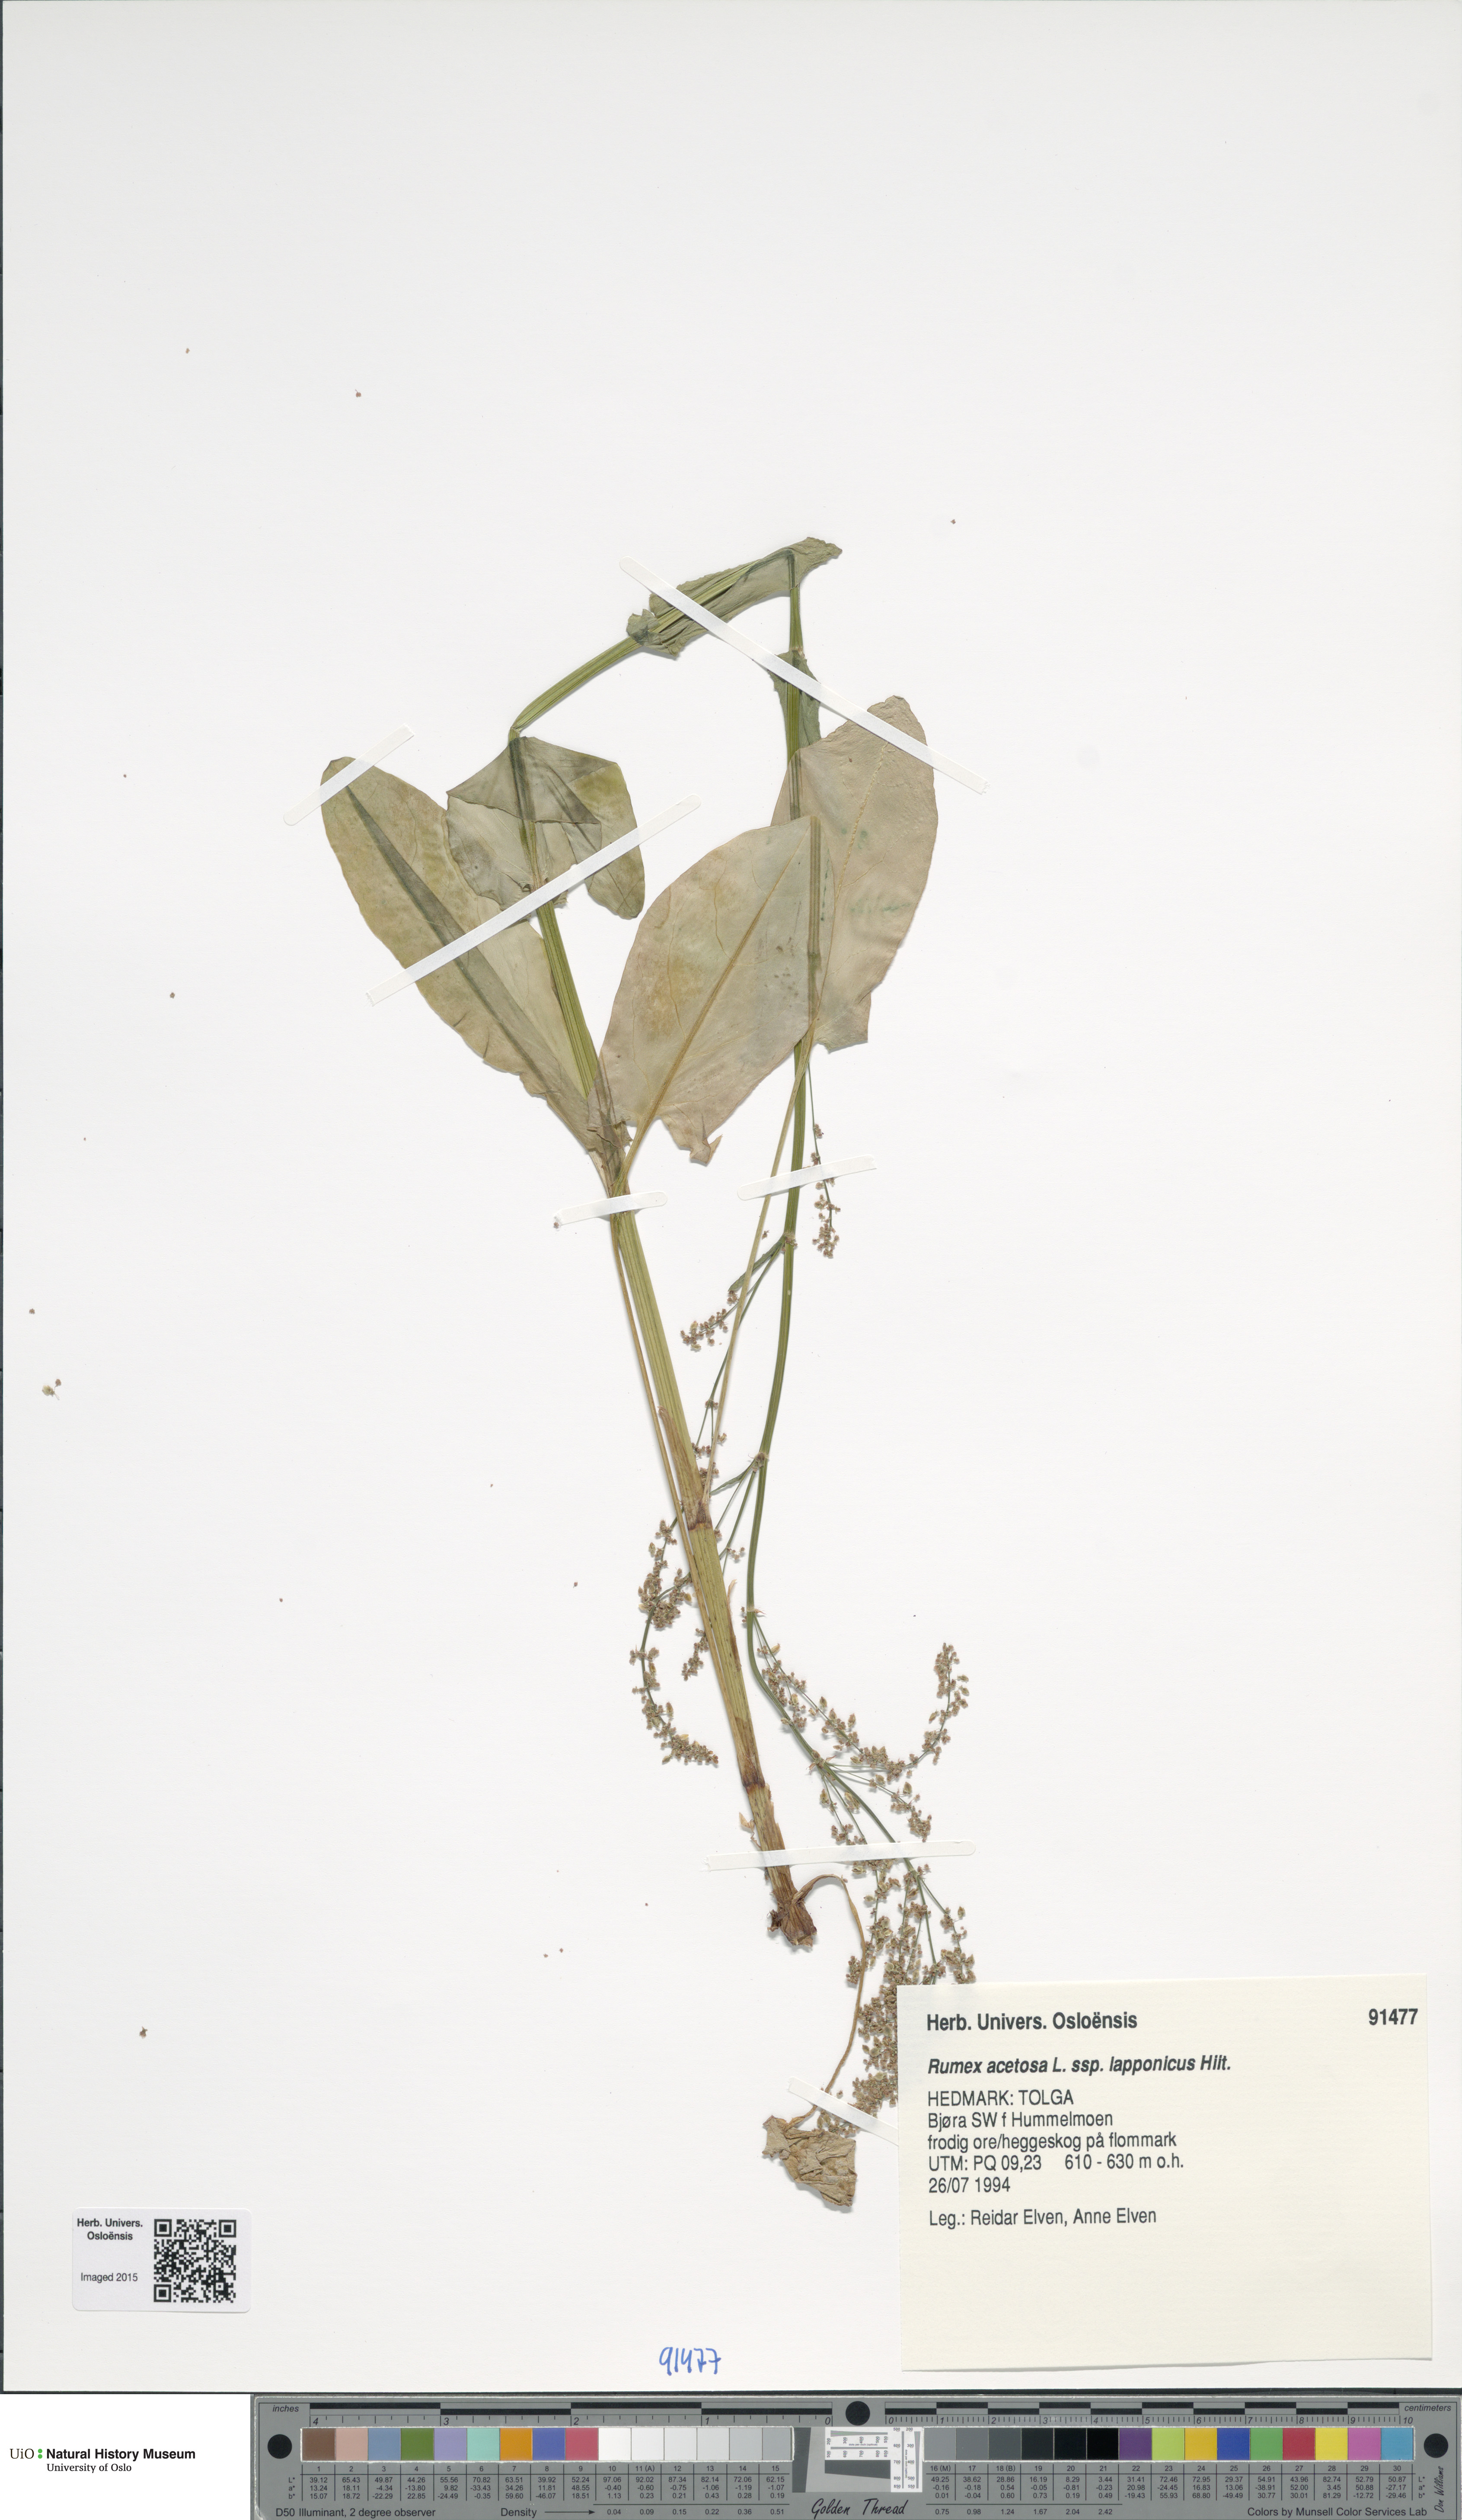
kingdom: Plantae
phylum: Tracheophyta
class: Magnoliopsida
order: Caryophyllales
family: Polygonaceae
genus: Rumex
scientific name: Rumex lapponicus
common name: Lapland mountain sorrel
